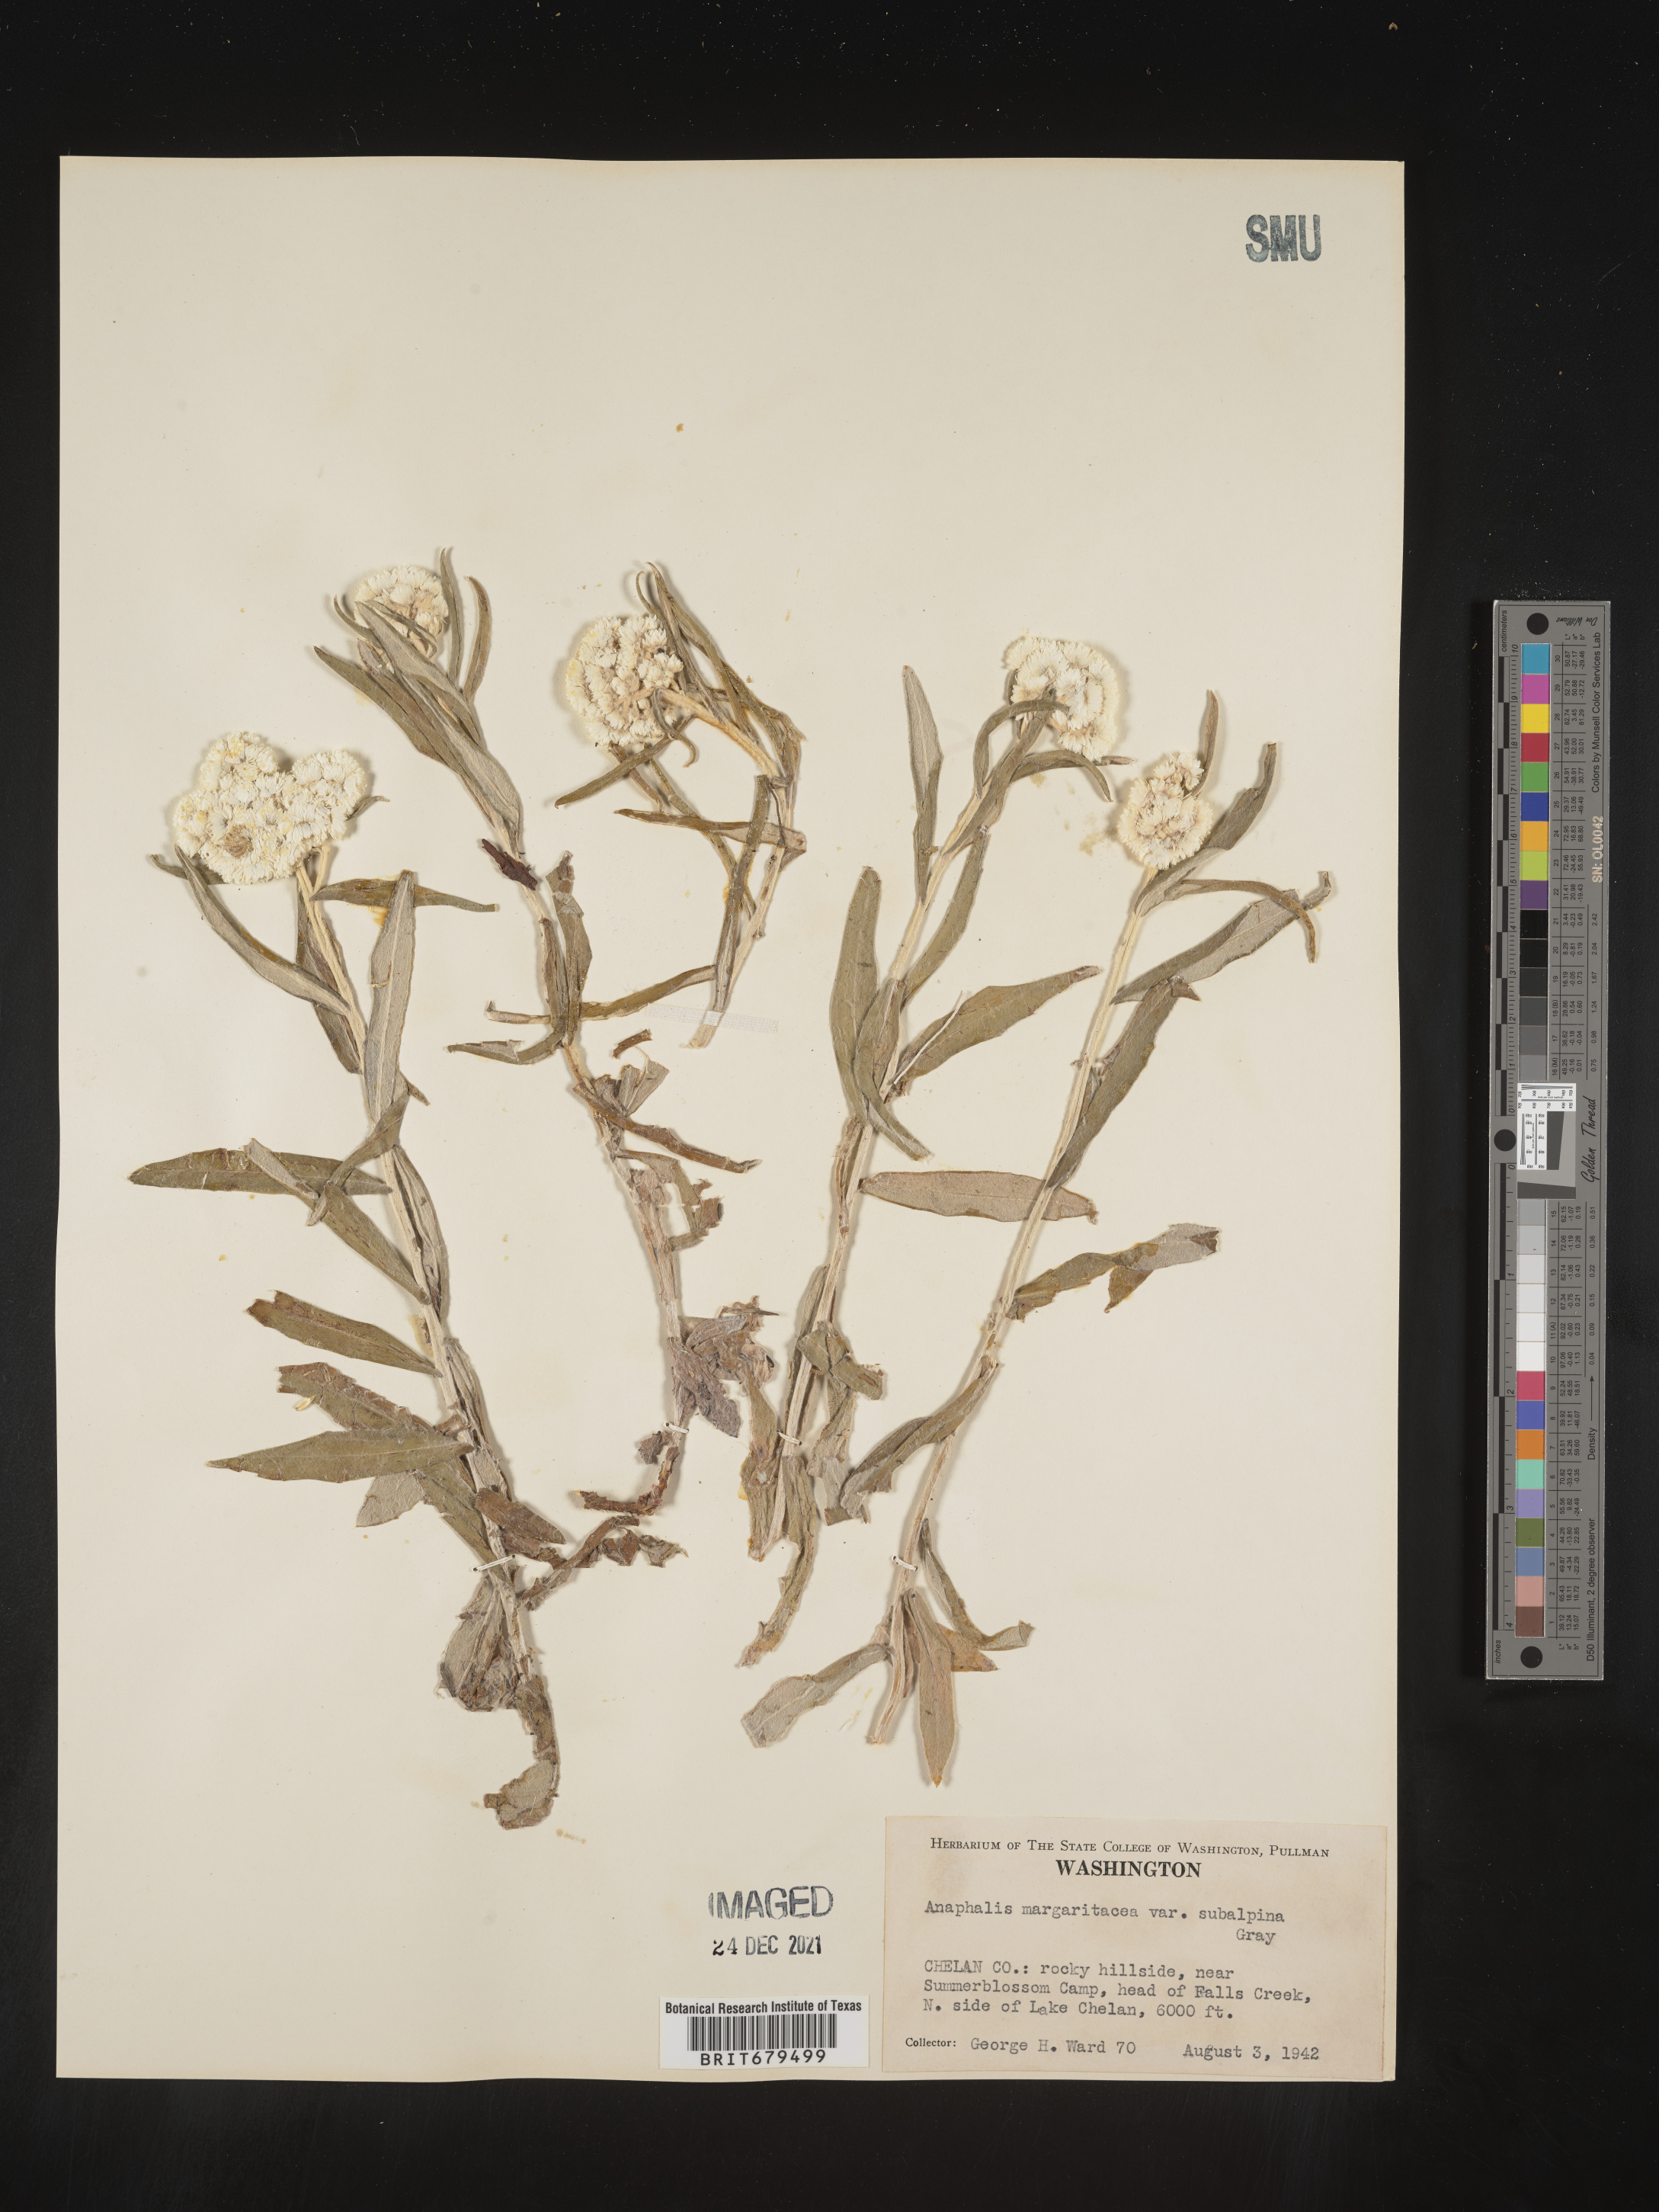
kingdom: Plantae
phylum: Tracheophyta
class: Magnoliopsida
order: Asterales
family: Asteraceae
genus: Anaphalis
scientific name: Anaphalis margaritacea
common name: Pearly everlasting
